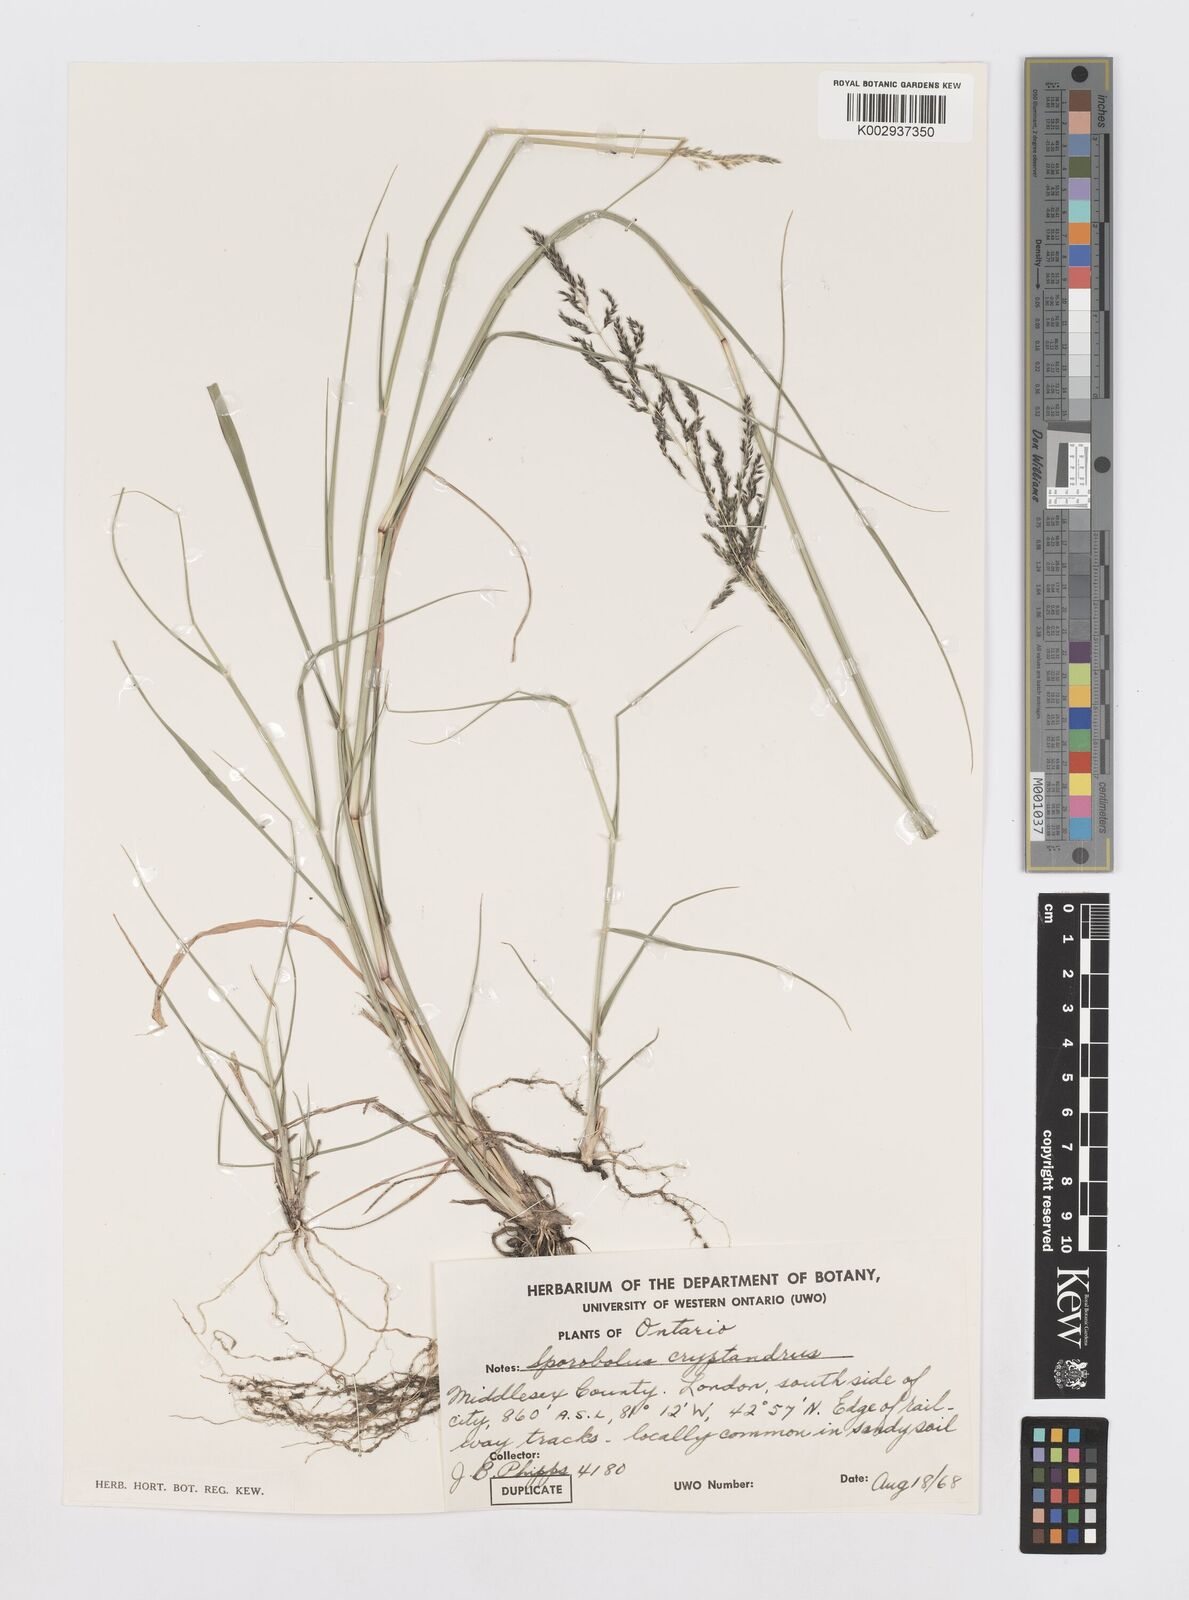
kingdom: Plantae
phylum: Tracheophyta
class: Liliopsida
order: Poales
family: Poaceae
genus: Sporobolus
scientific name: Sporobolus cryptandrus
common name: Sand dropseed
